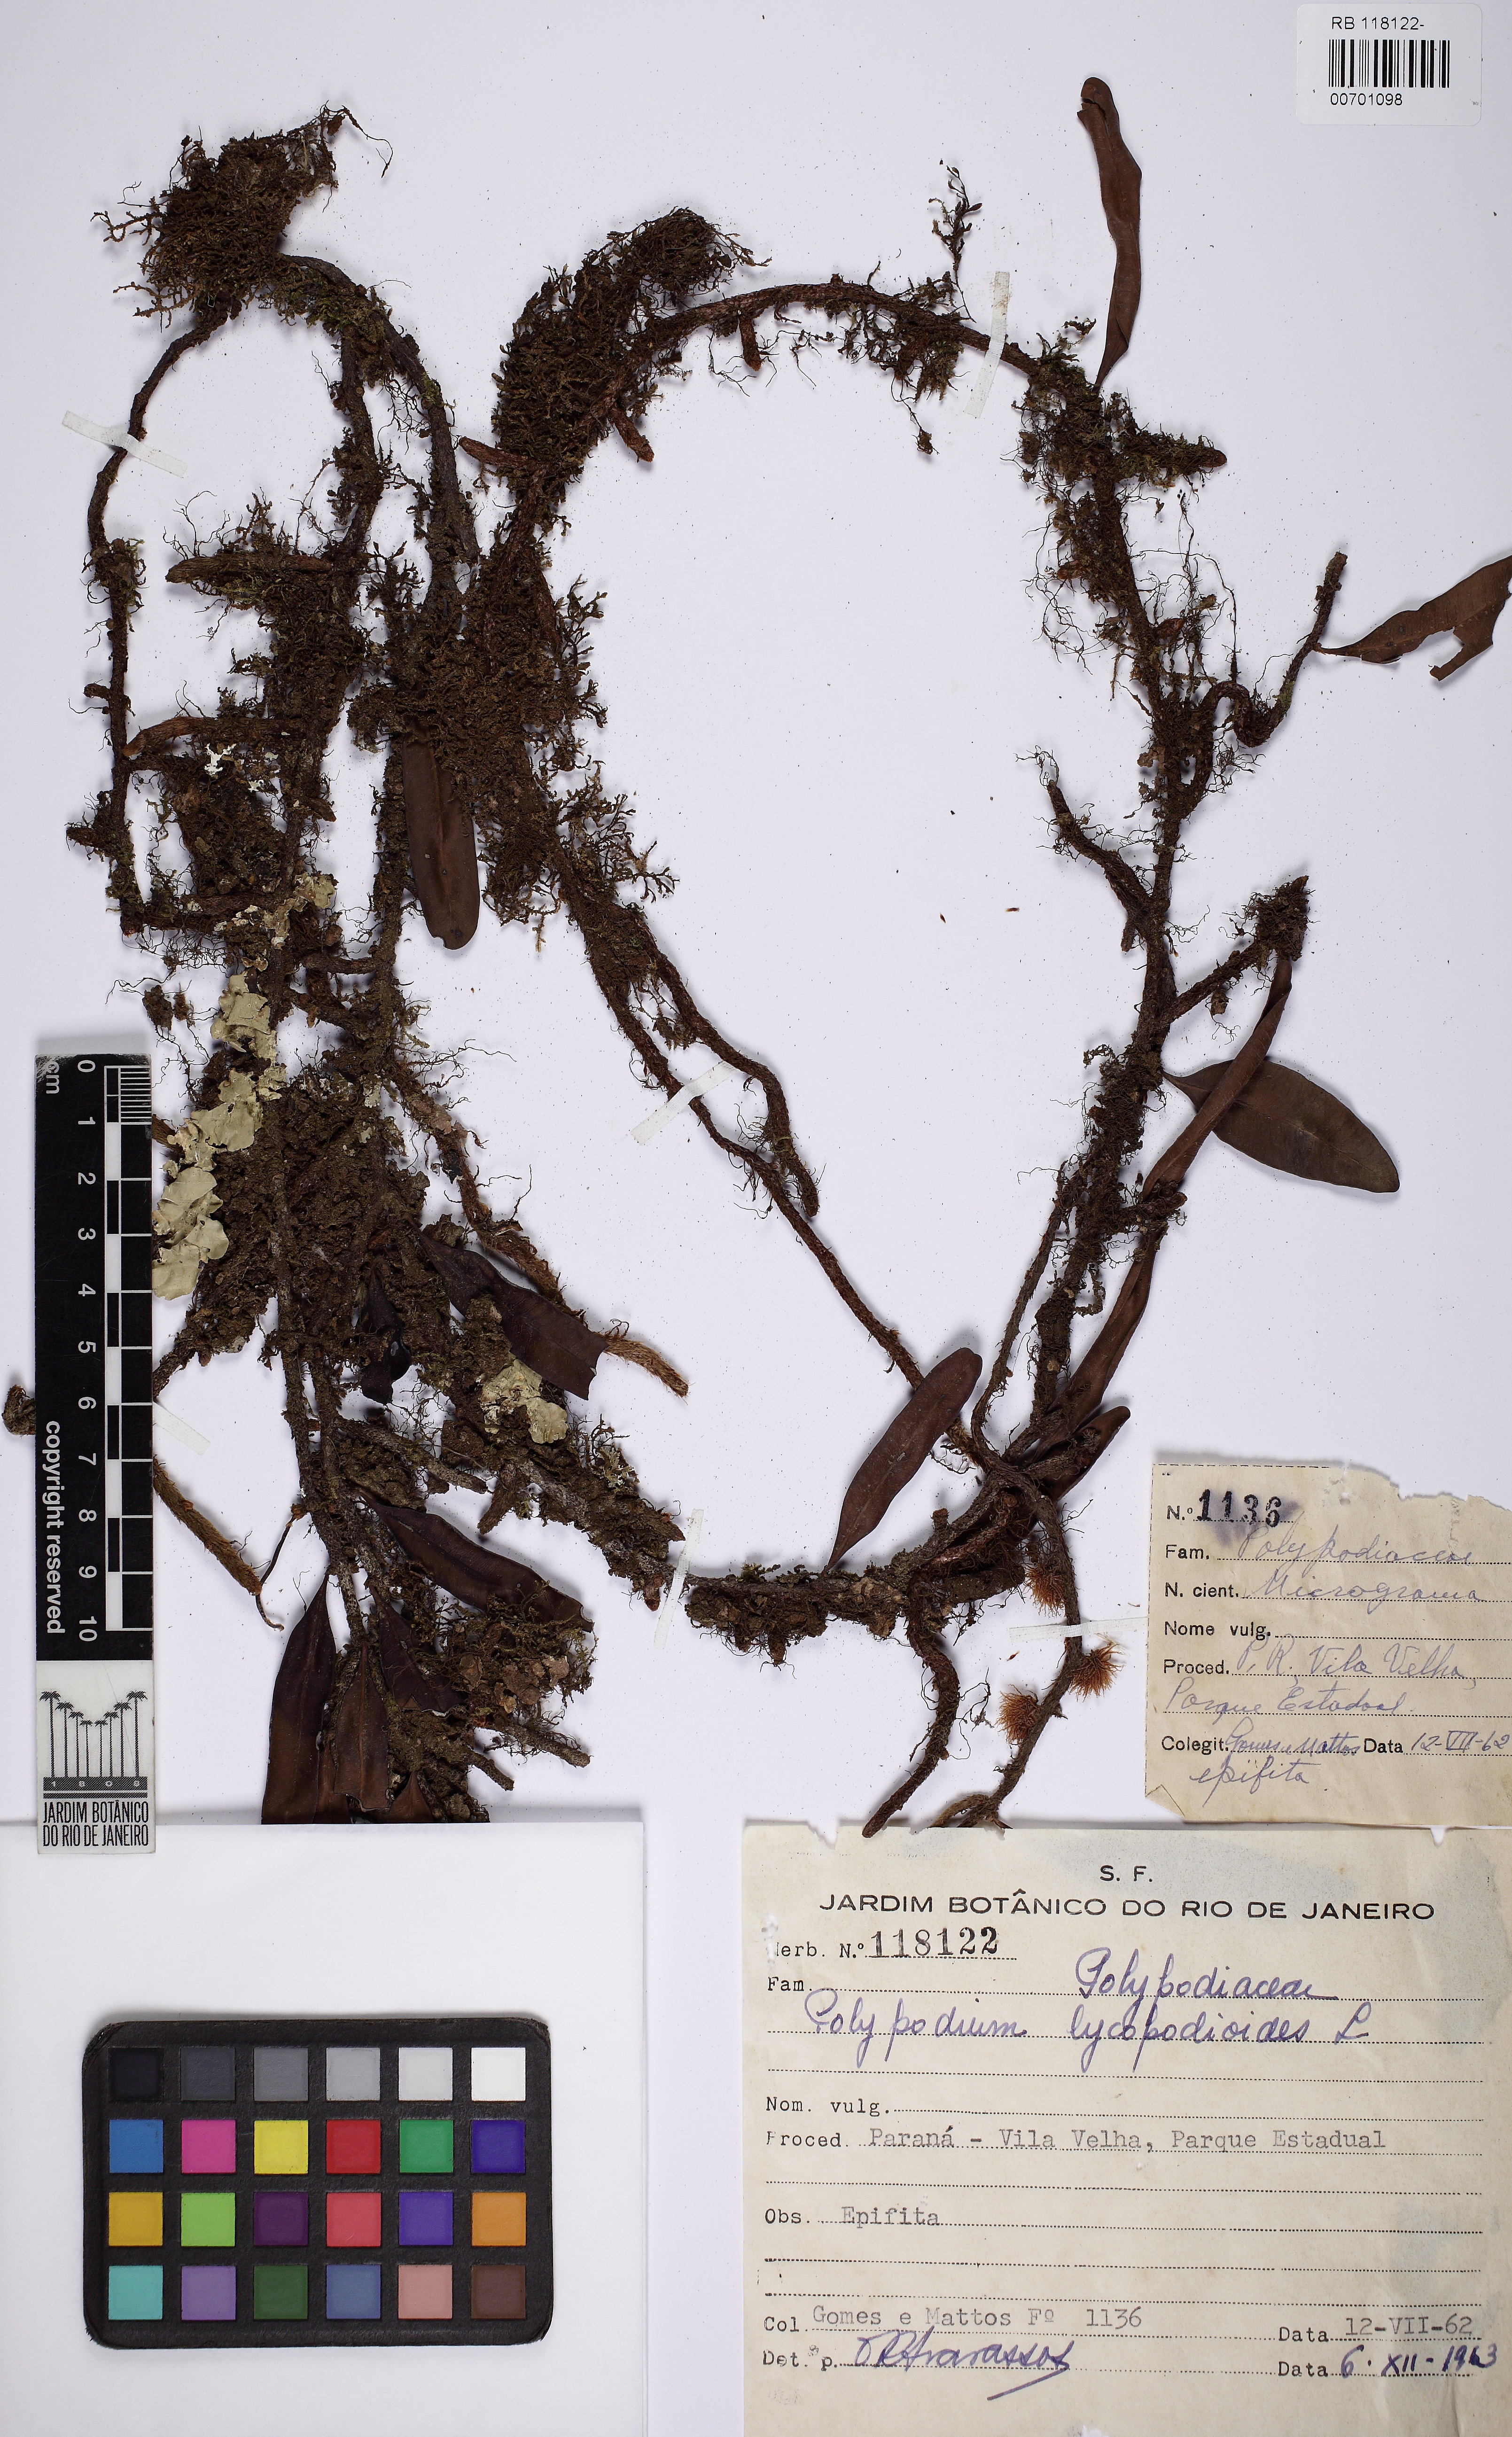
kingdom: Plantae
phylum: Tracheophyta
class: Polypodiopsida
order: Polypodiales
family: Polypodiaceae
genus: Microgramma
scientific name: Microgramma squamulosa
